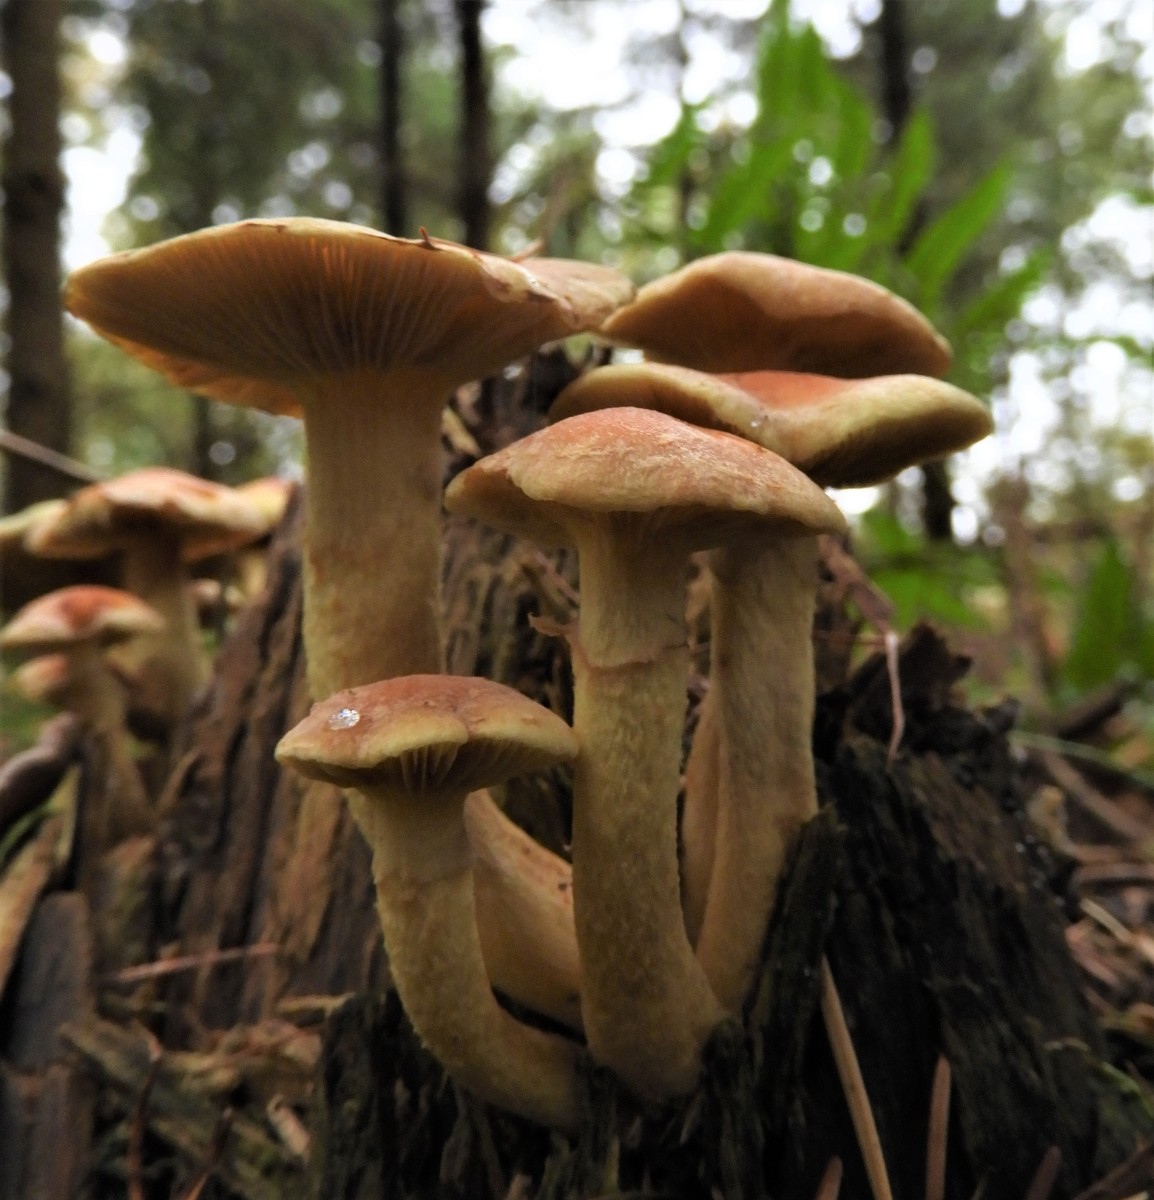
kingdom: Fungi
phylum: Basidiomycota
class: Agaricomycetes
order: Agaricales
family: Strophariaceae
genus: Hypholoma
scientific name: Hypholoma fasciculare
